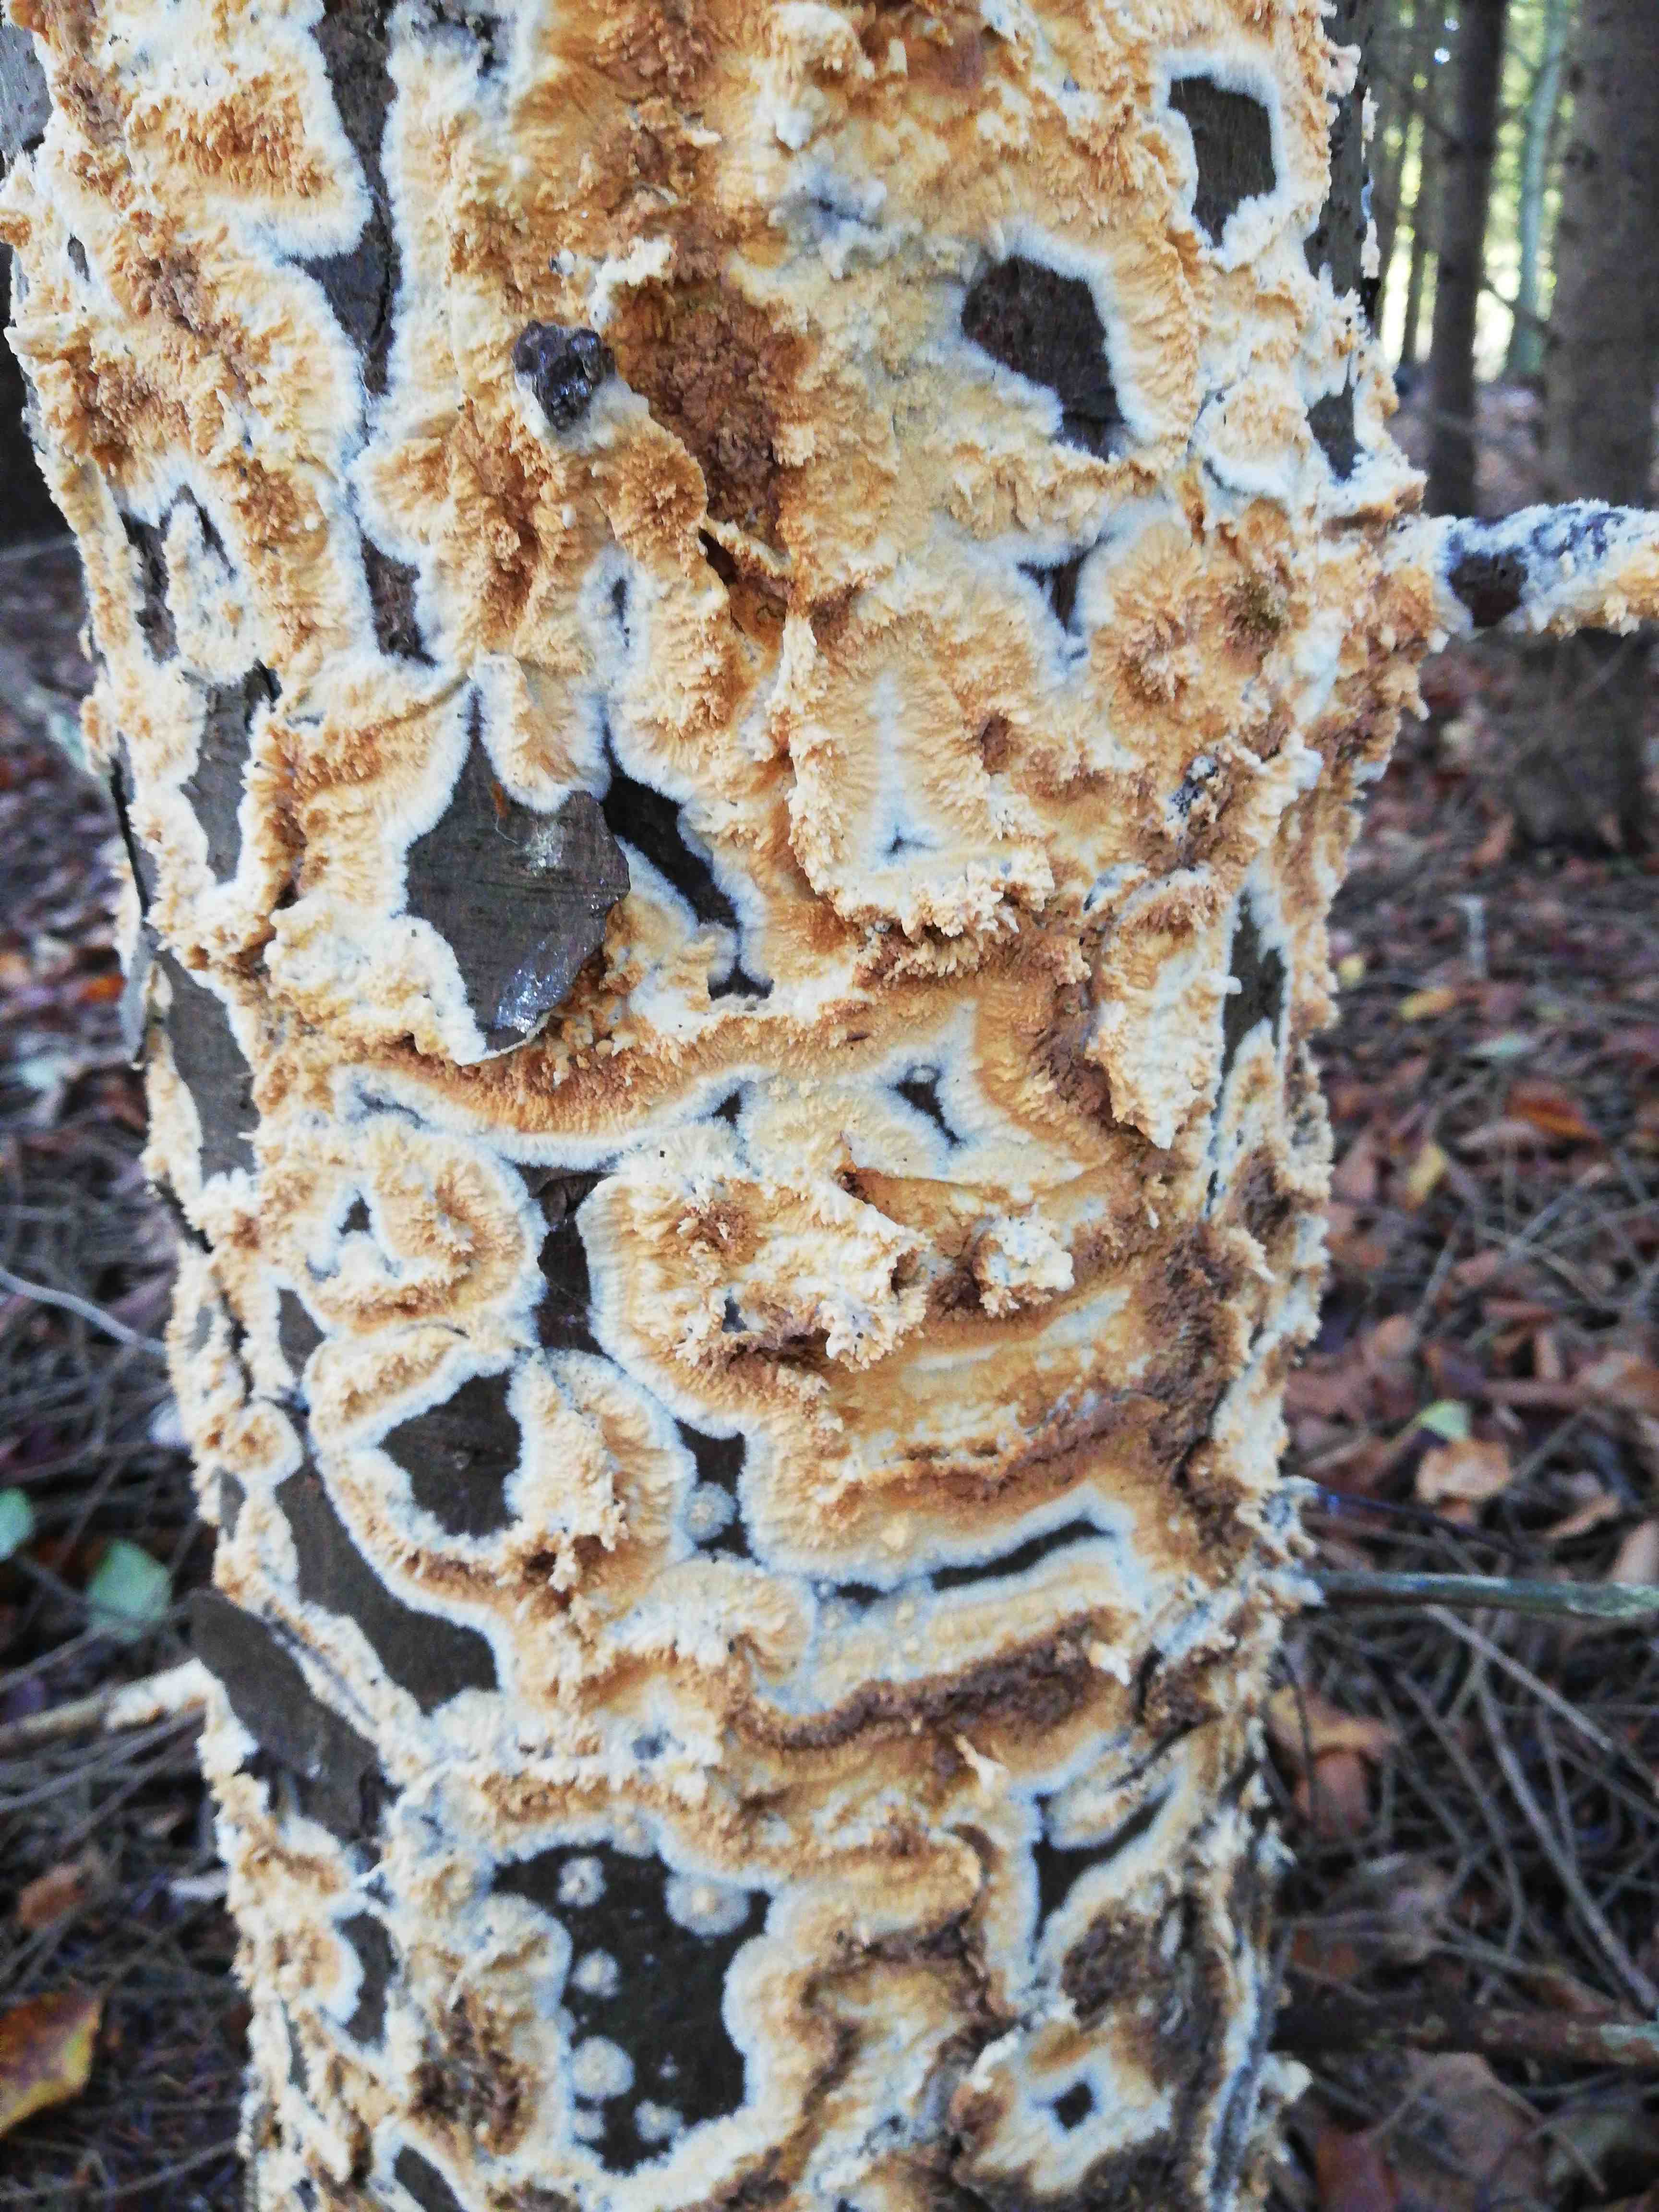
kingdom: Fungi
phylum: Basidiomycota
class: Agaricomycetes
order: Corticiales
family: Corticiaceae
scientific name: Corticiaceae
